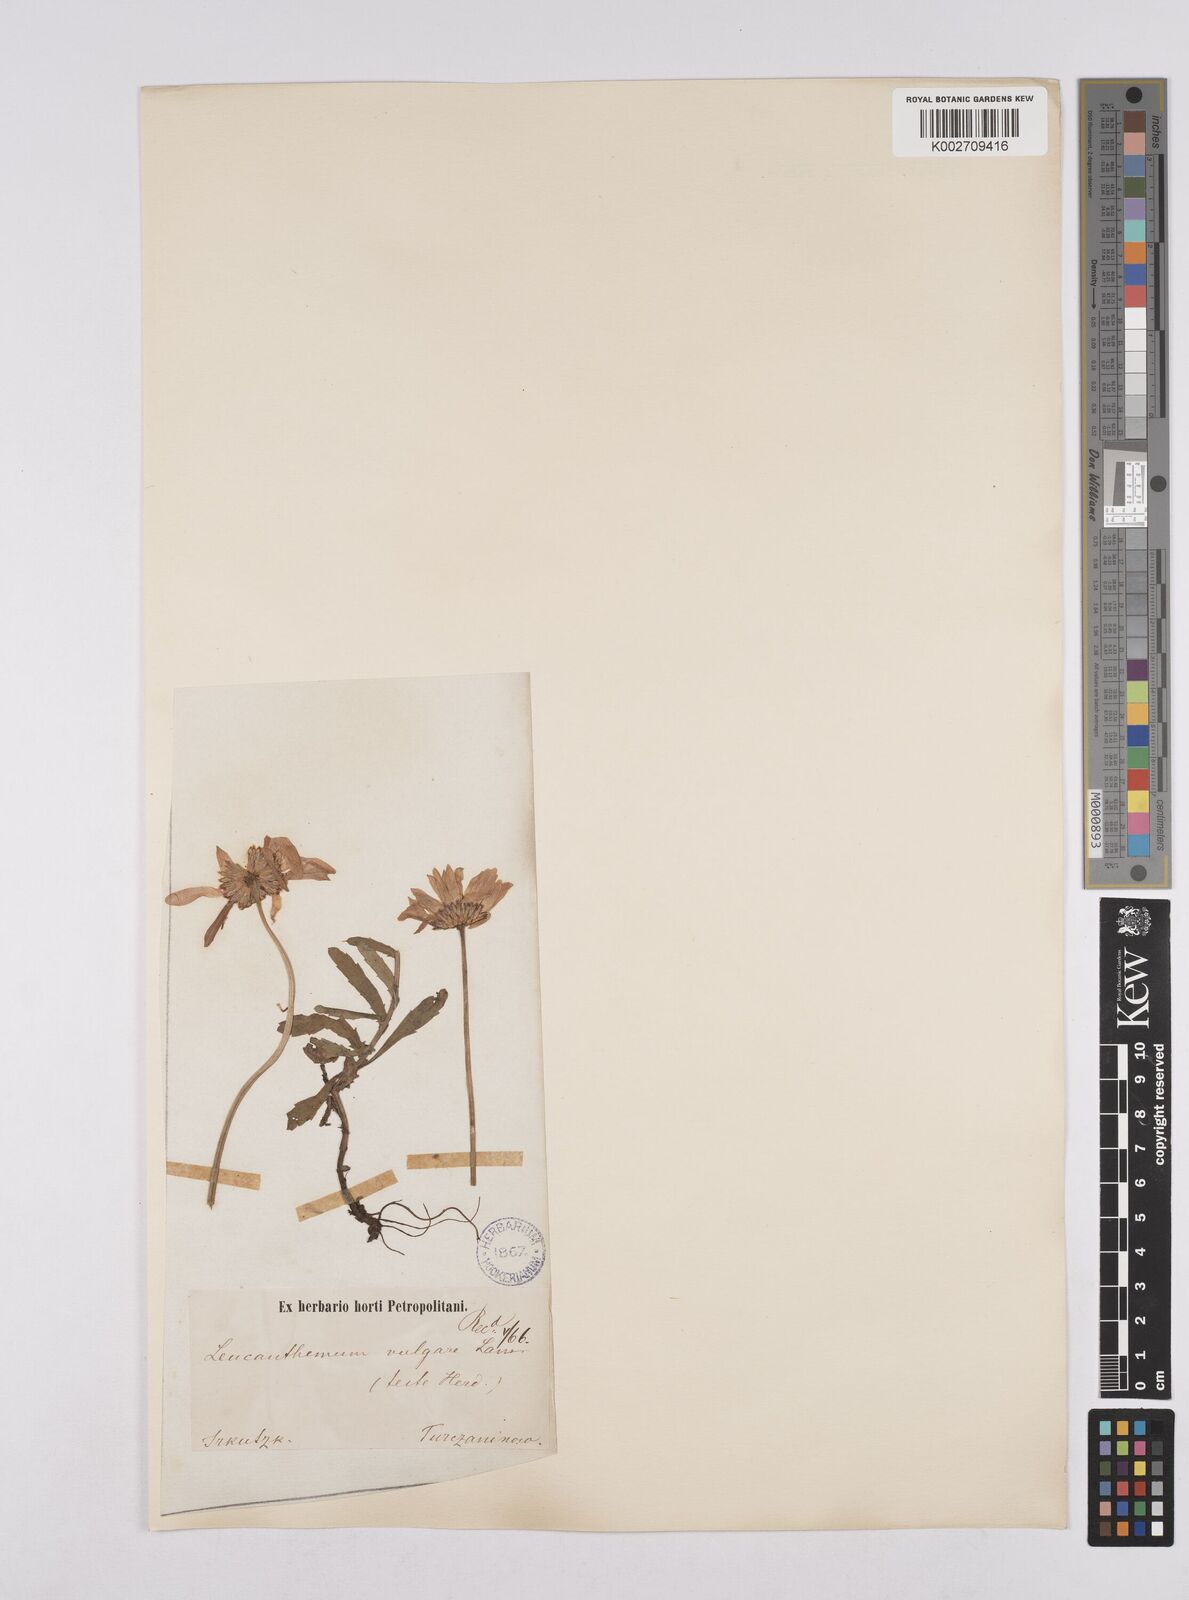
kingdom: Plantae
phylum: Tracheophyta
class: Magnoliopsida
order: Asterales
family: Asteraceae
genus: Leucanthemum
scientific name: Leucanthemum vulgare
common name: Oxeye daisy
